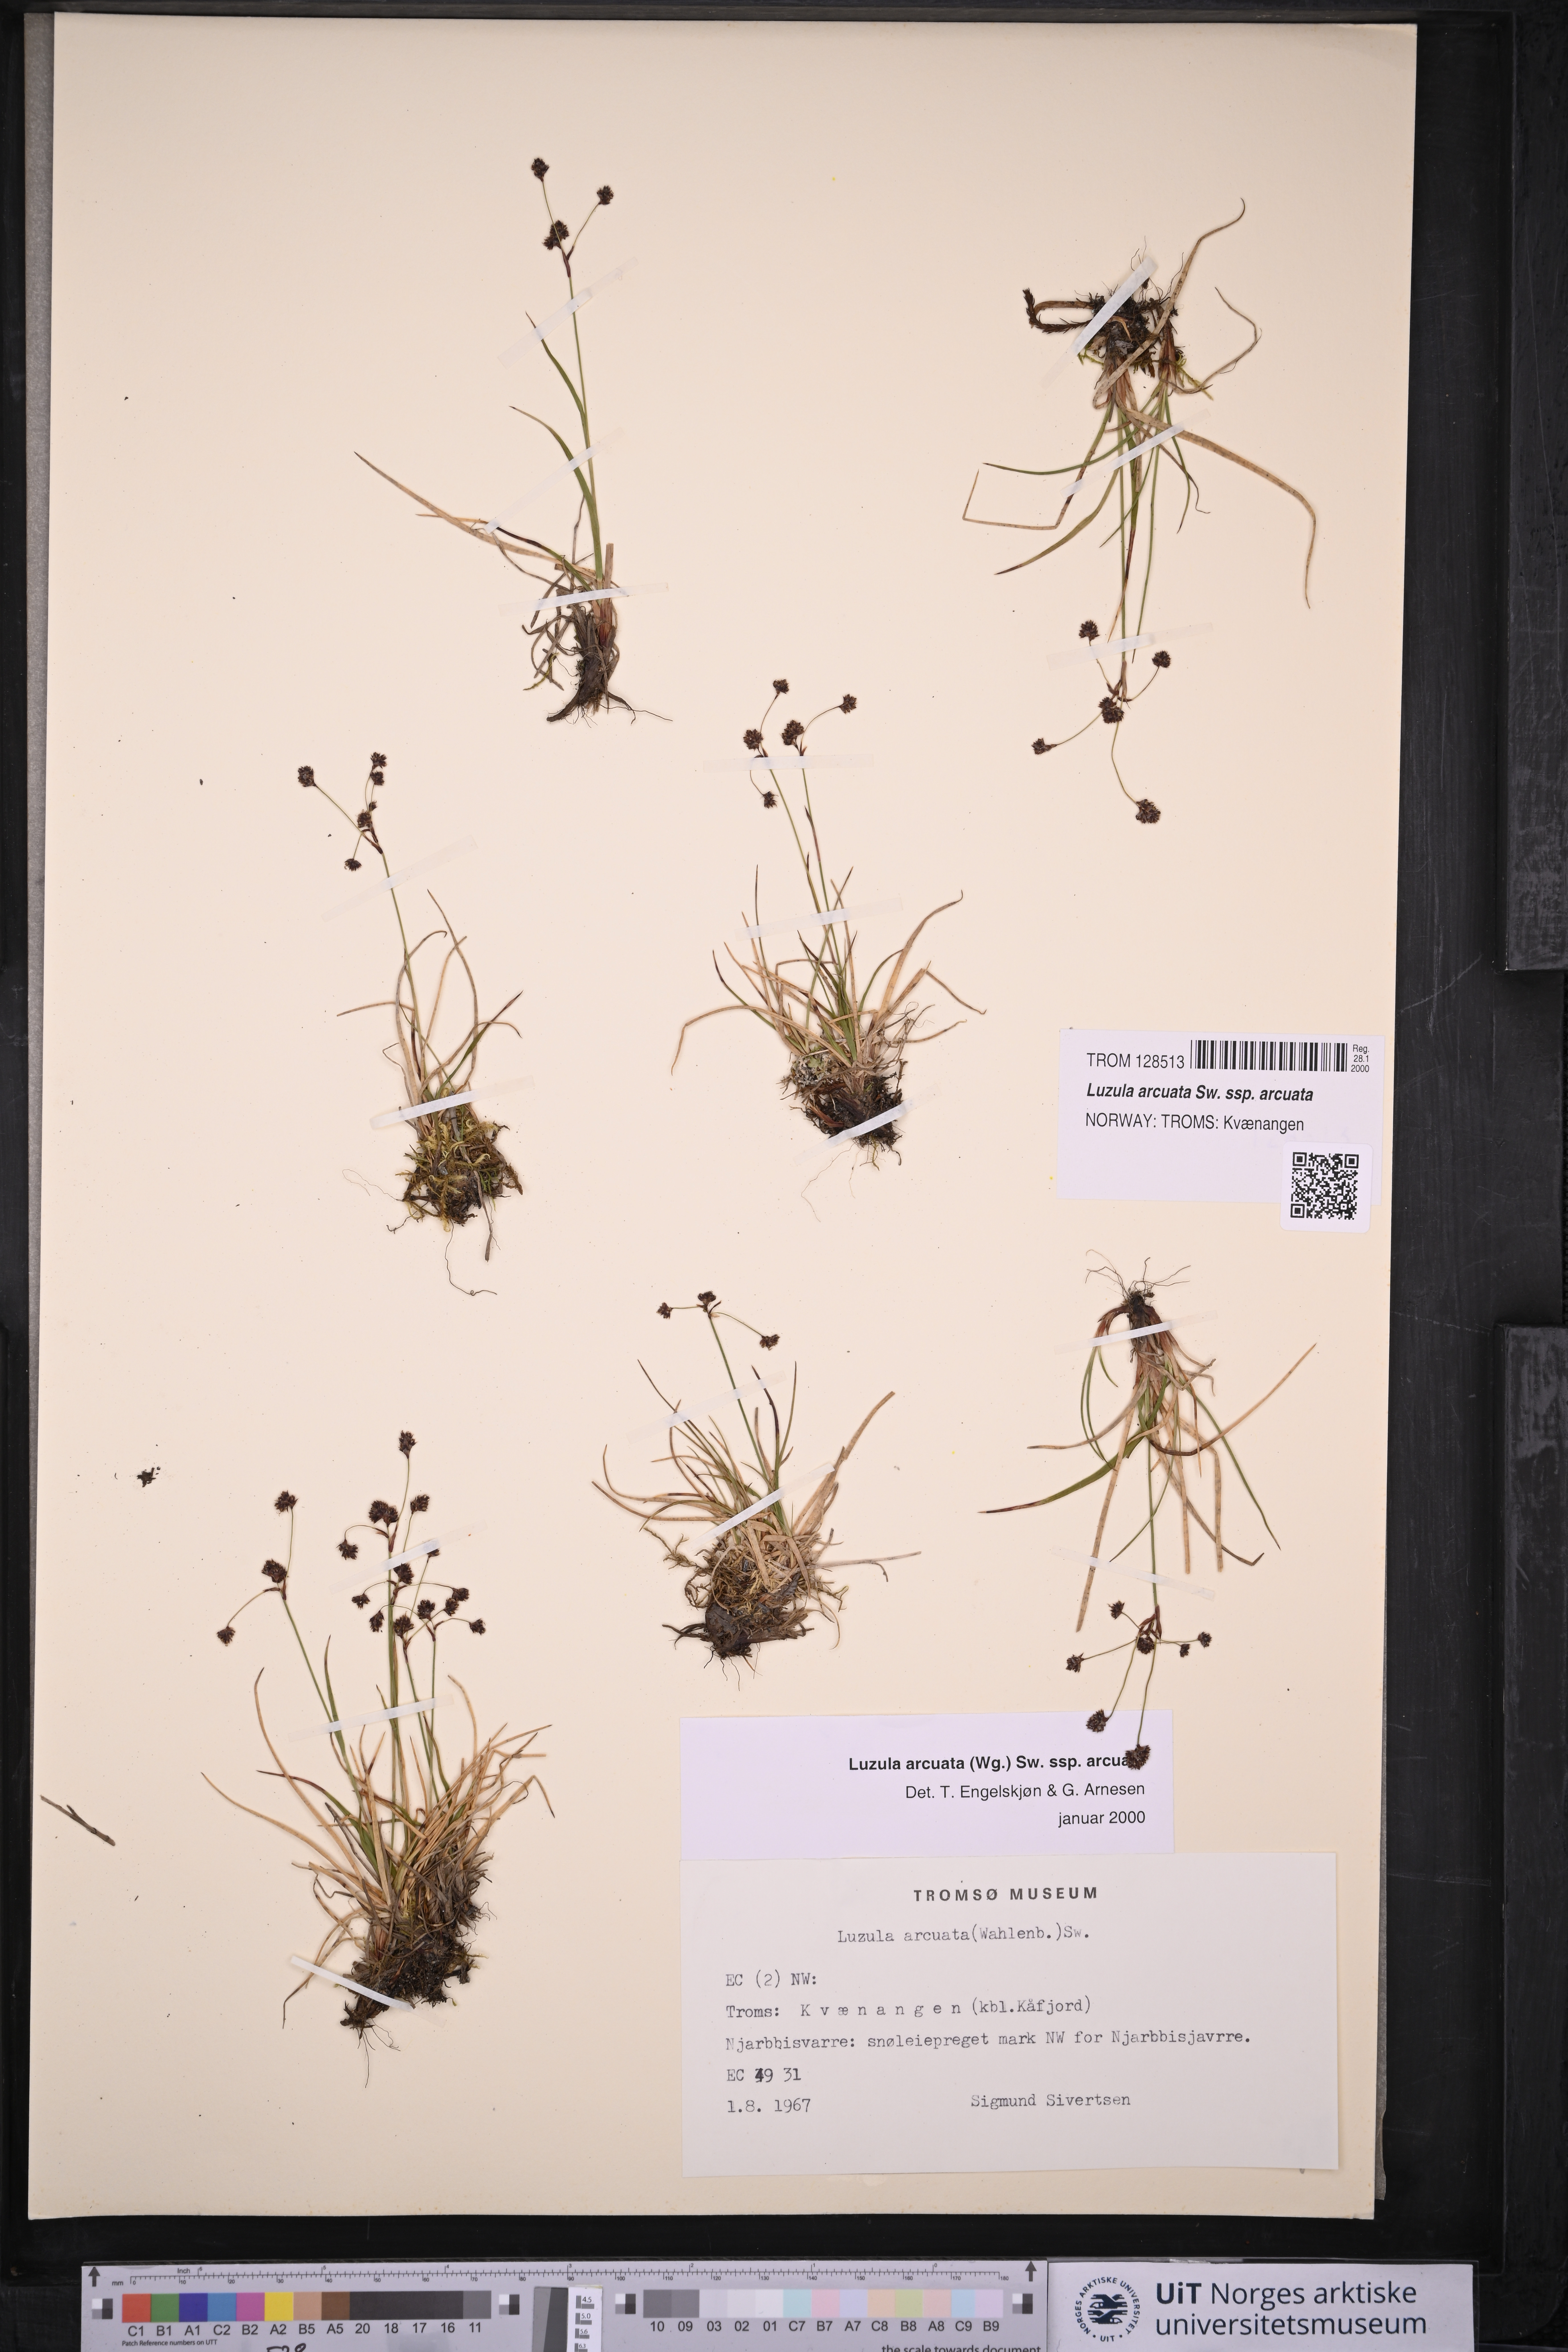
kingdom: Plantae
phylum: Tracheophyta
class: Liliopsida
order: Poales
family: Juncaceae
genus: Luzula
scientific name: Luzula arcuata
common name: Curved wood-rush
